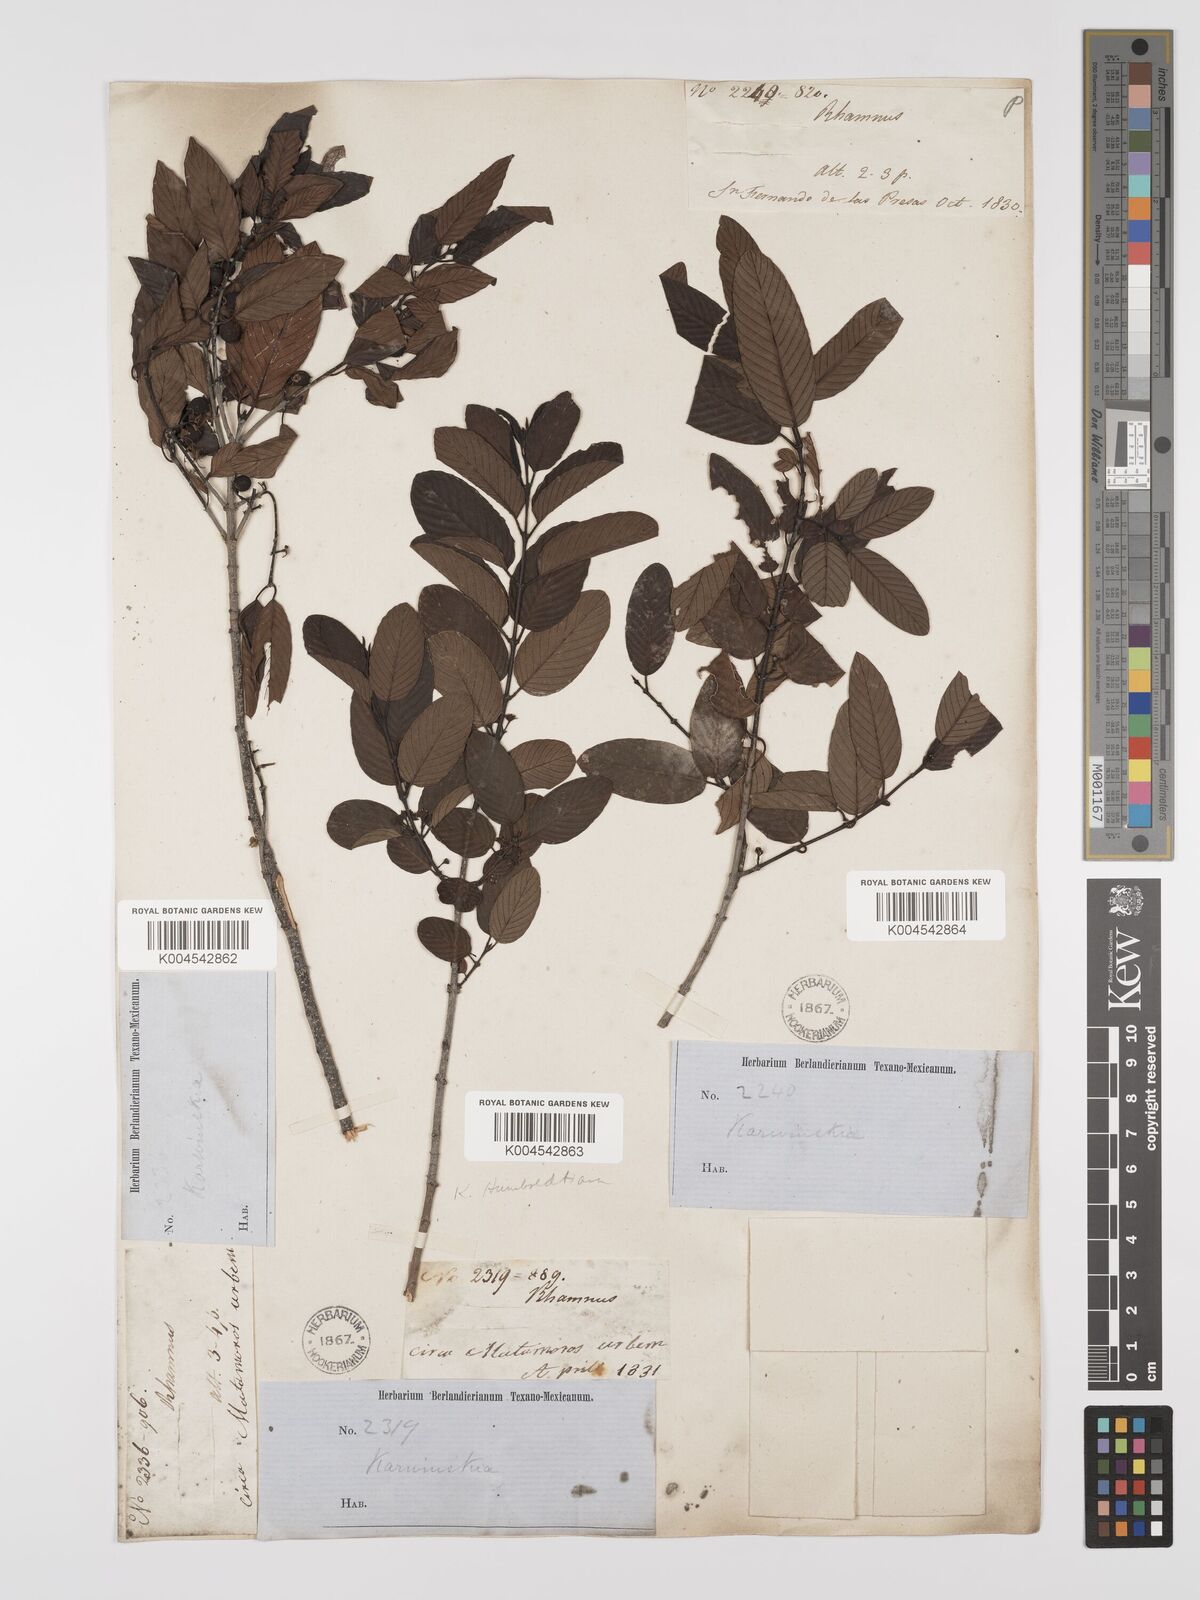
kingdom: Plantae
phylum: Tracheophyta
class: Magnoliopsida
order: Rosales
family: Rhamnaceae
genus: Karwinskia
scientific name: Karwinskia humboldtiana
